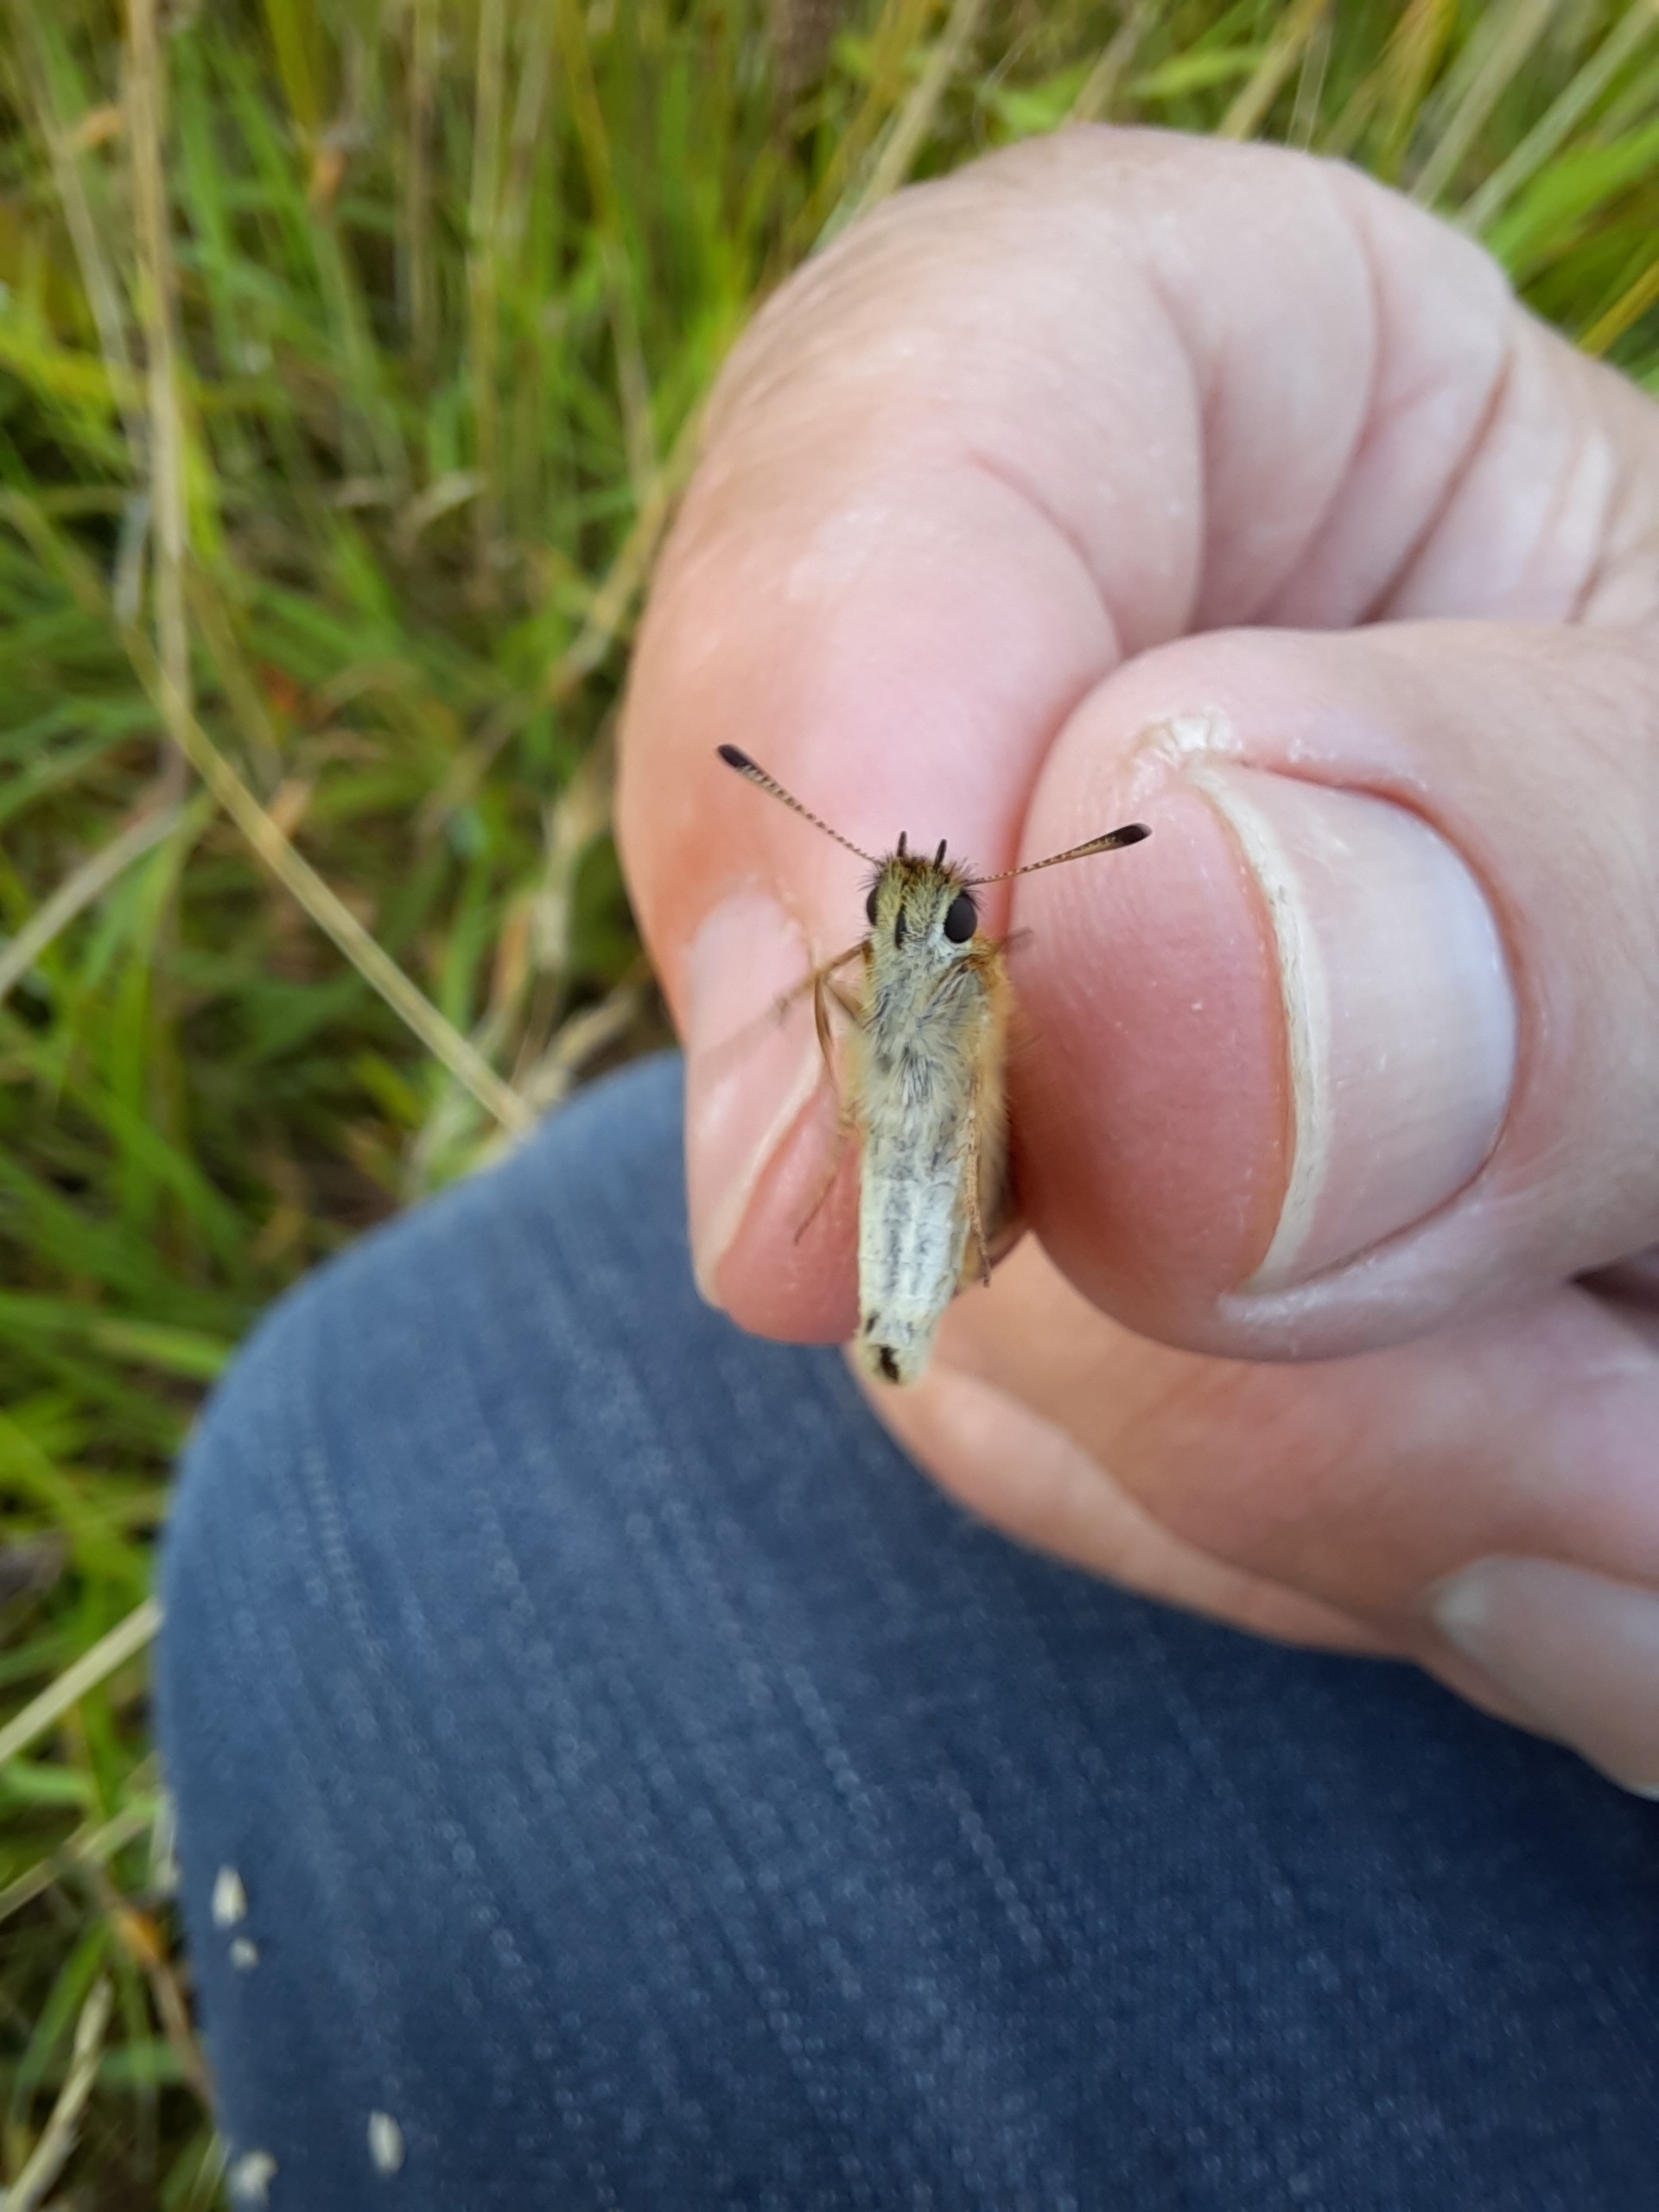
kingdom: Animalia
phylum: Arthropoda
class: Insecta
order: Lepidoptera
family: Hesperiidae
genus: Thymelicus
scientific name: Thymelicus lineola
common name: Stregbredpande
